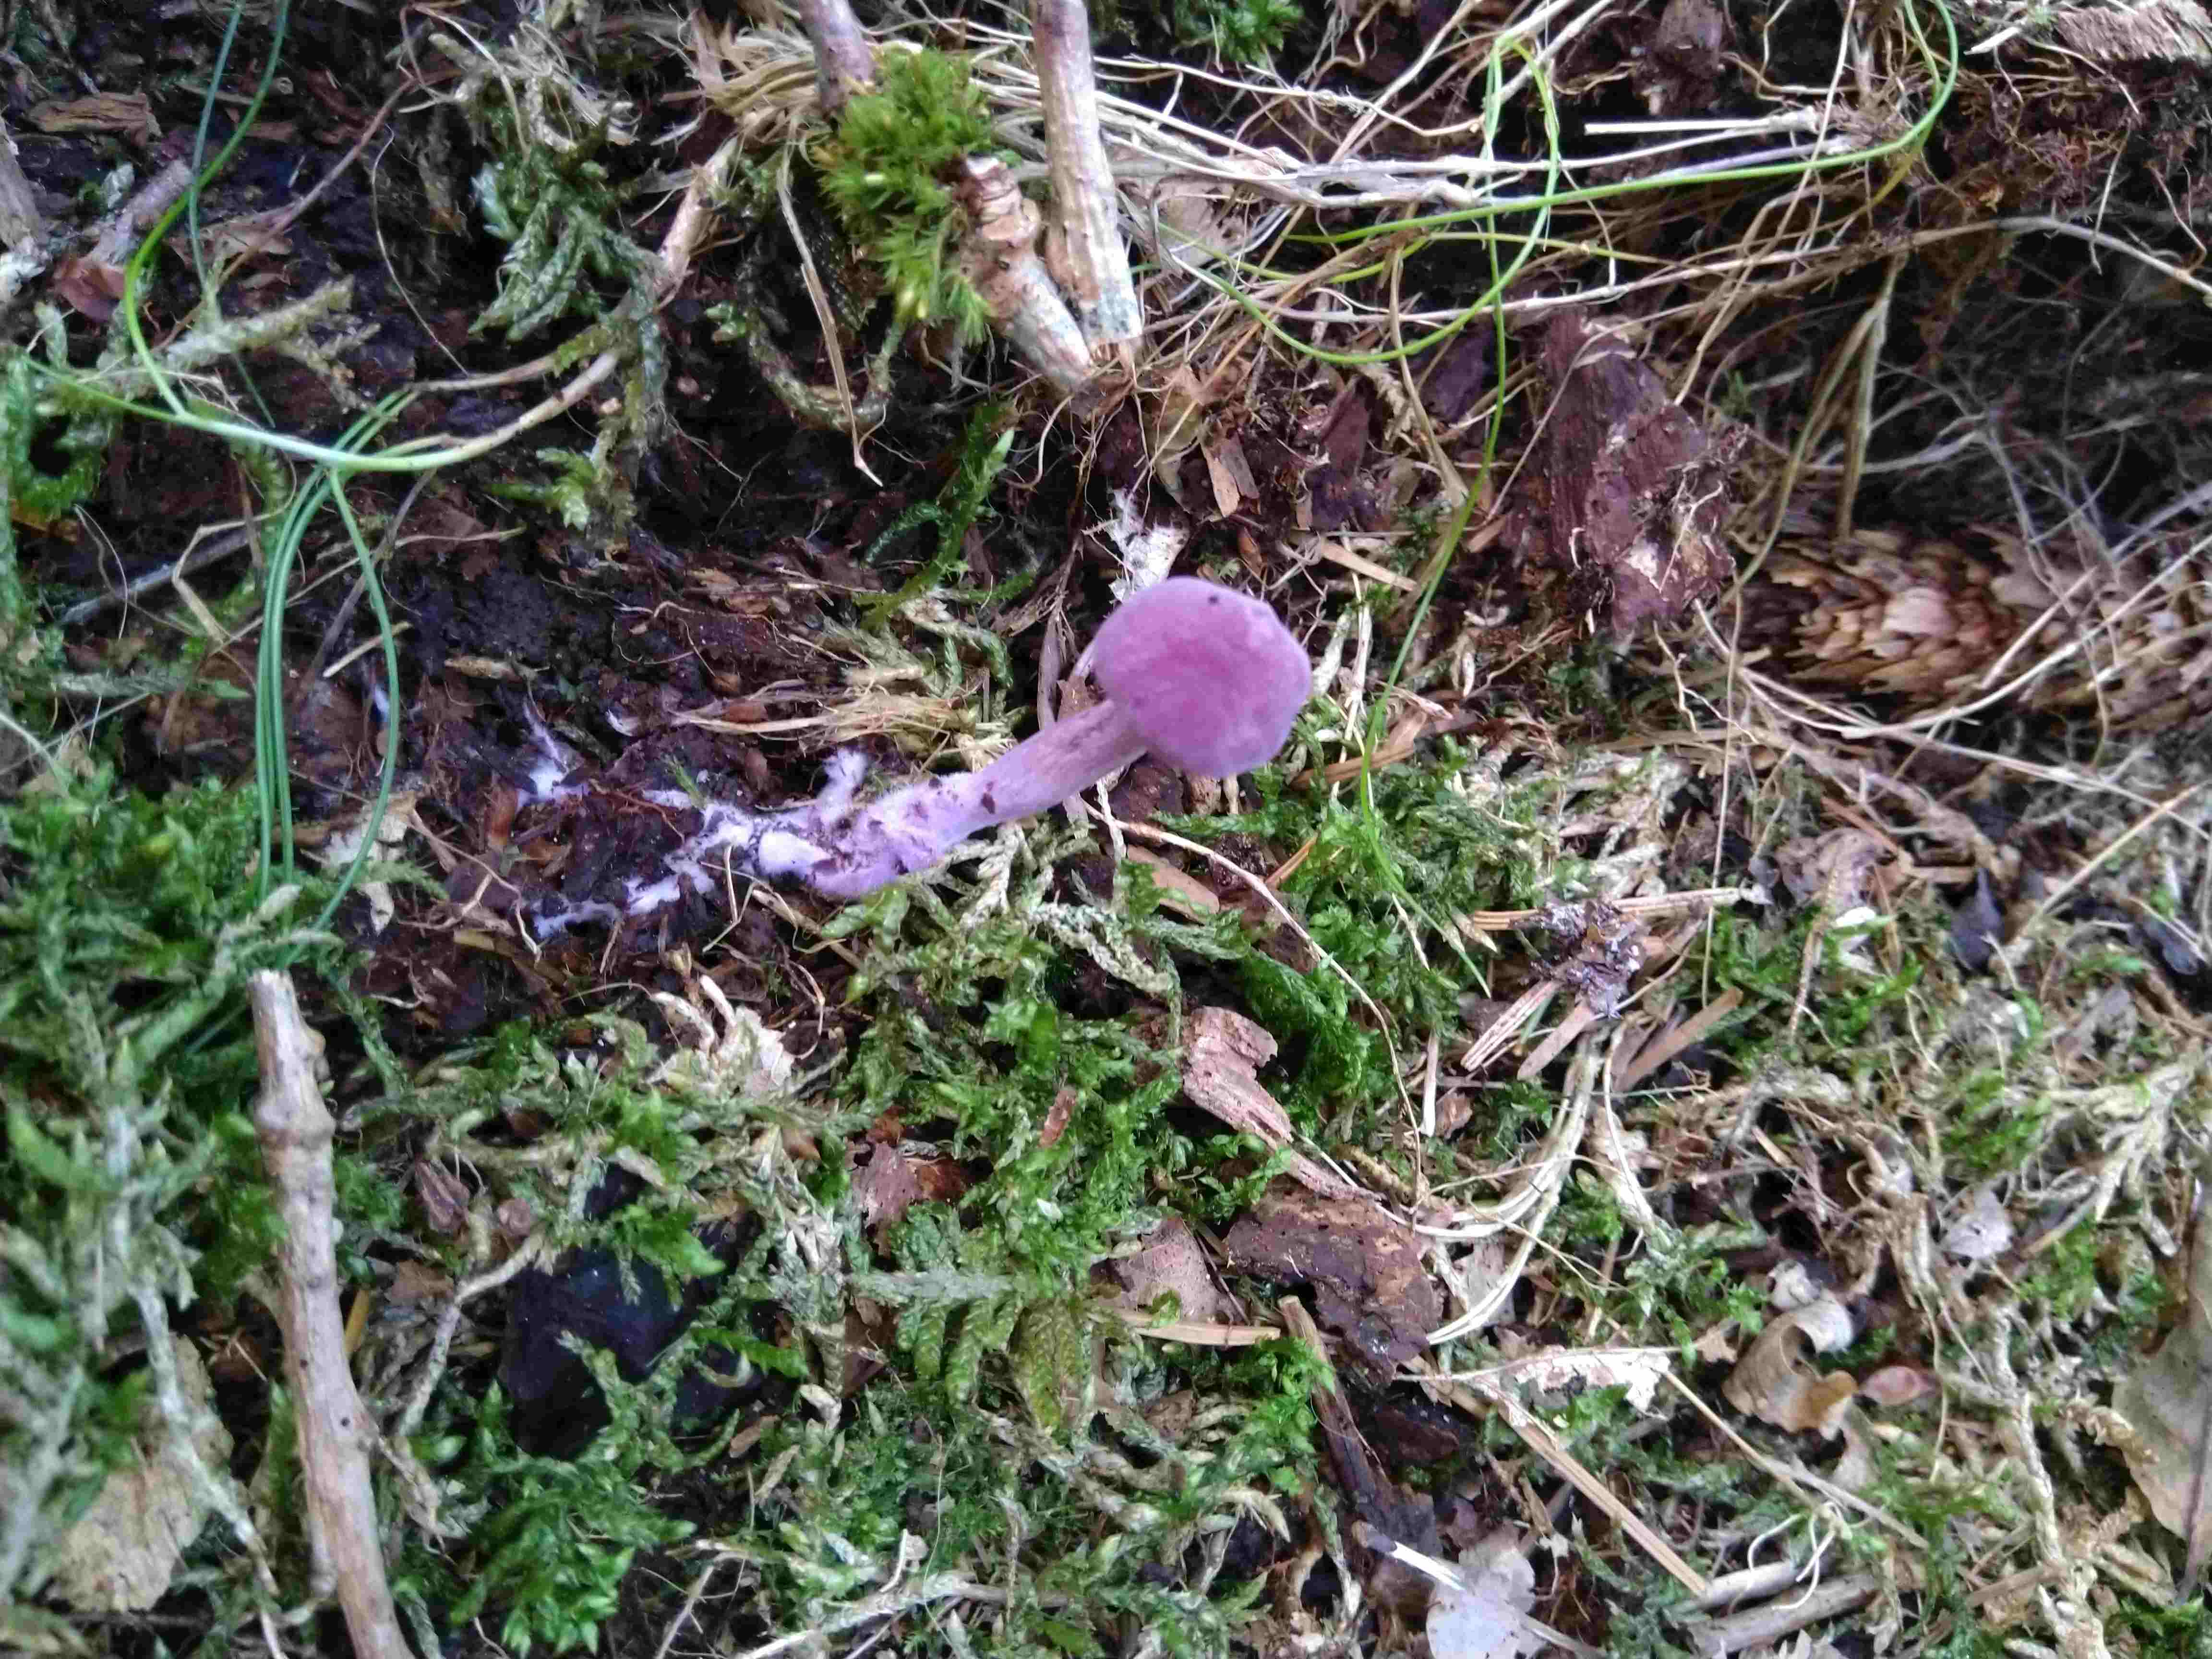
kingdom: Fungi
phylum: Basidiomycota
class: Agaricomycetes
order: Agaricales
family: Hydnangiaceae
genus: Laccaria
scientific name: Laccaria amethystina
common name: violet ametysthat
